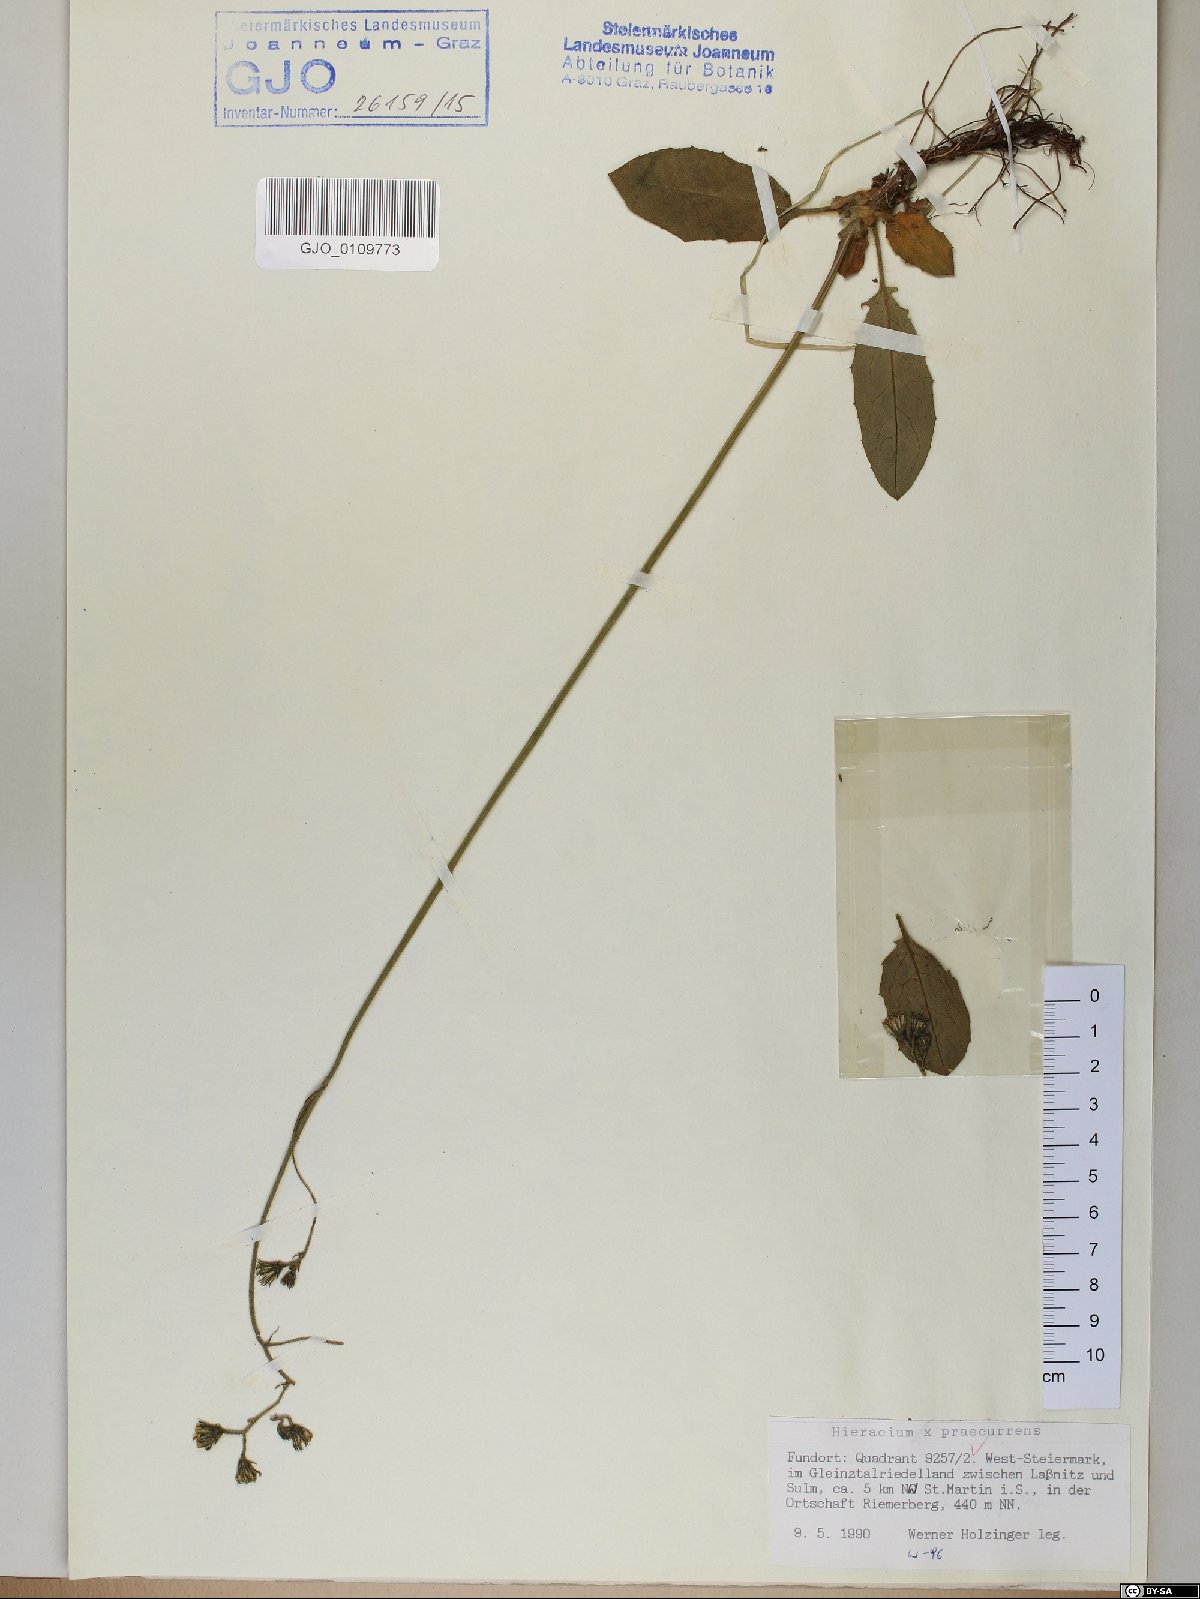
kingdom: Plantae
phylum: Tracheophyta
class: Magnoliopsida
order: Asterales
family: Asteraceae
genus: Hieracium
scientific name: Hieracium rotundatum
